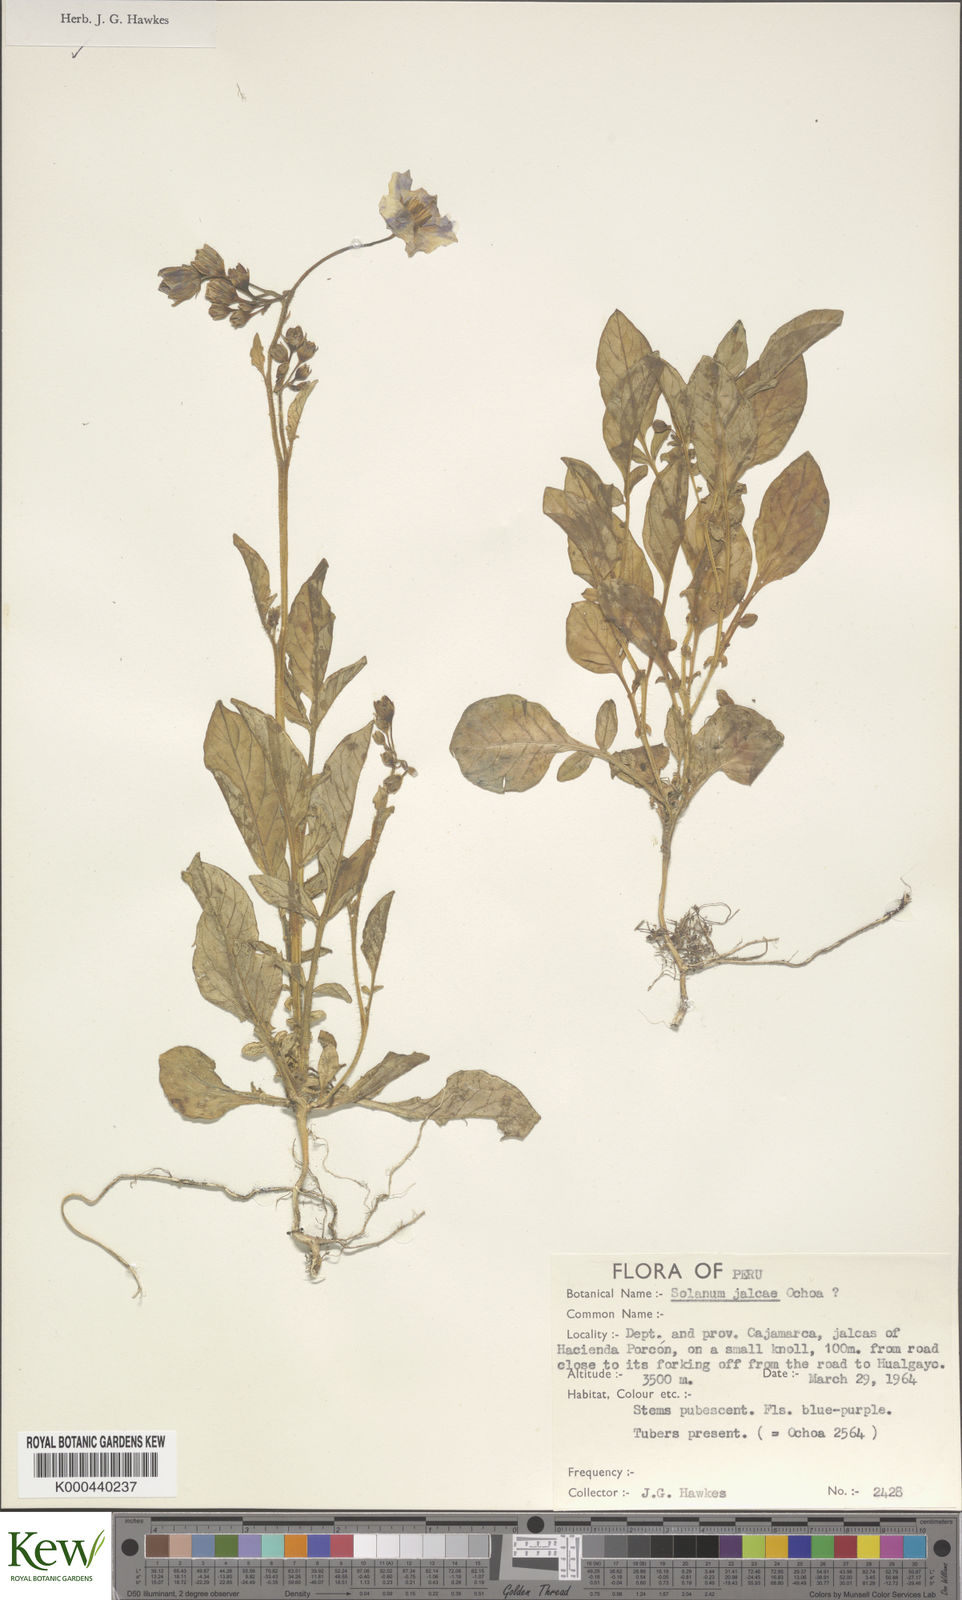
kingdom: Plantae
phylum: Tracheophyta
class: Magnoliopsida
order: Solanales
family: Solanaceae
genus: Solanum
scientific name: Solanum chomatophilum
